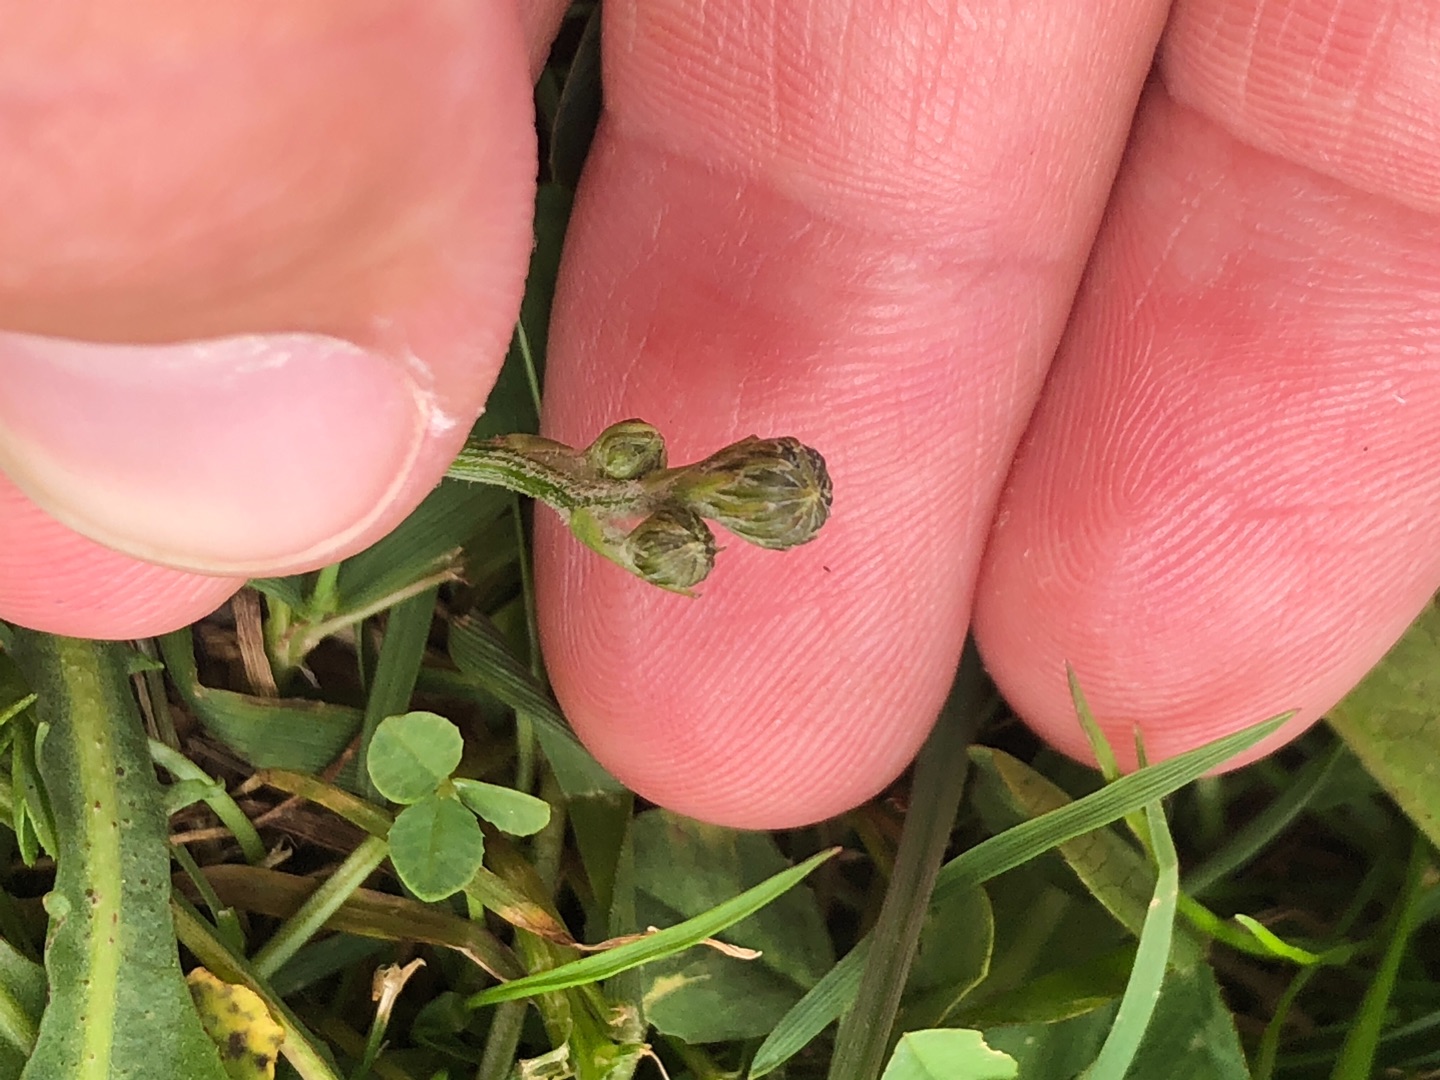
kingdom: Plantae
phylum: Tracheophyta
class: Magnoliopsida
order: Asterales
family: Asteraceae
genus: Scorzoneroides
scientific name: Scorzoneroides autumnalis
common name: Høst-borst
